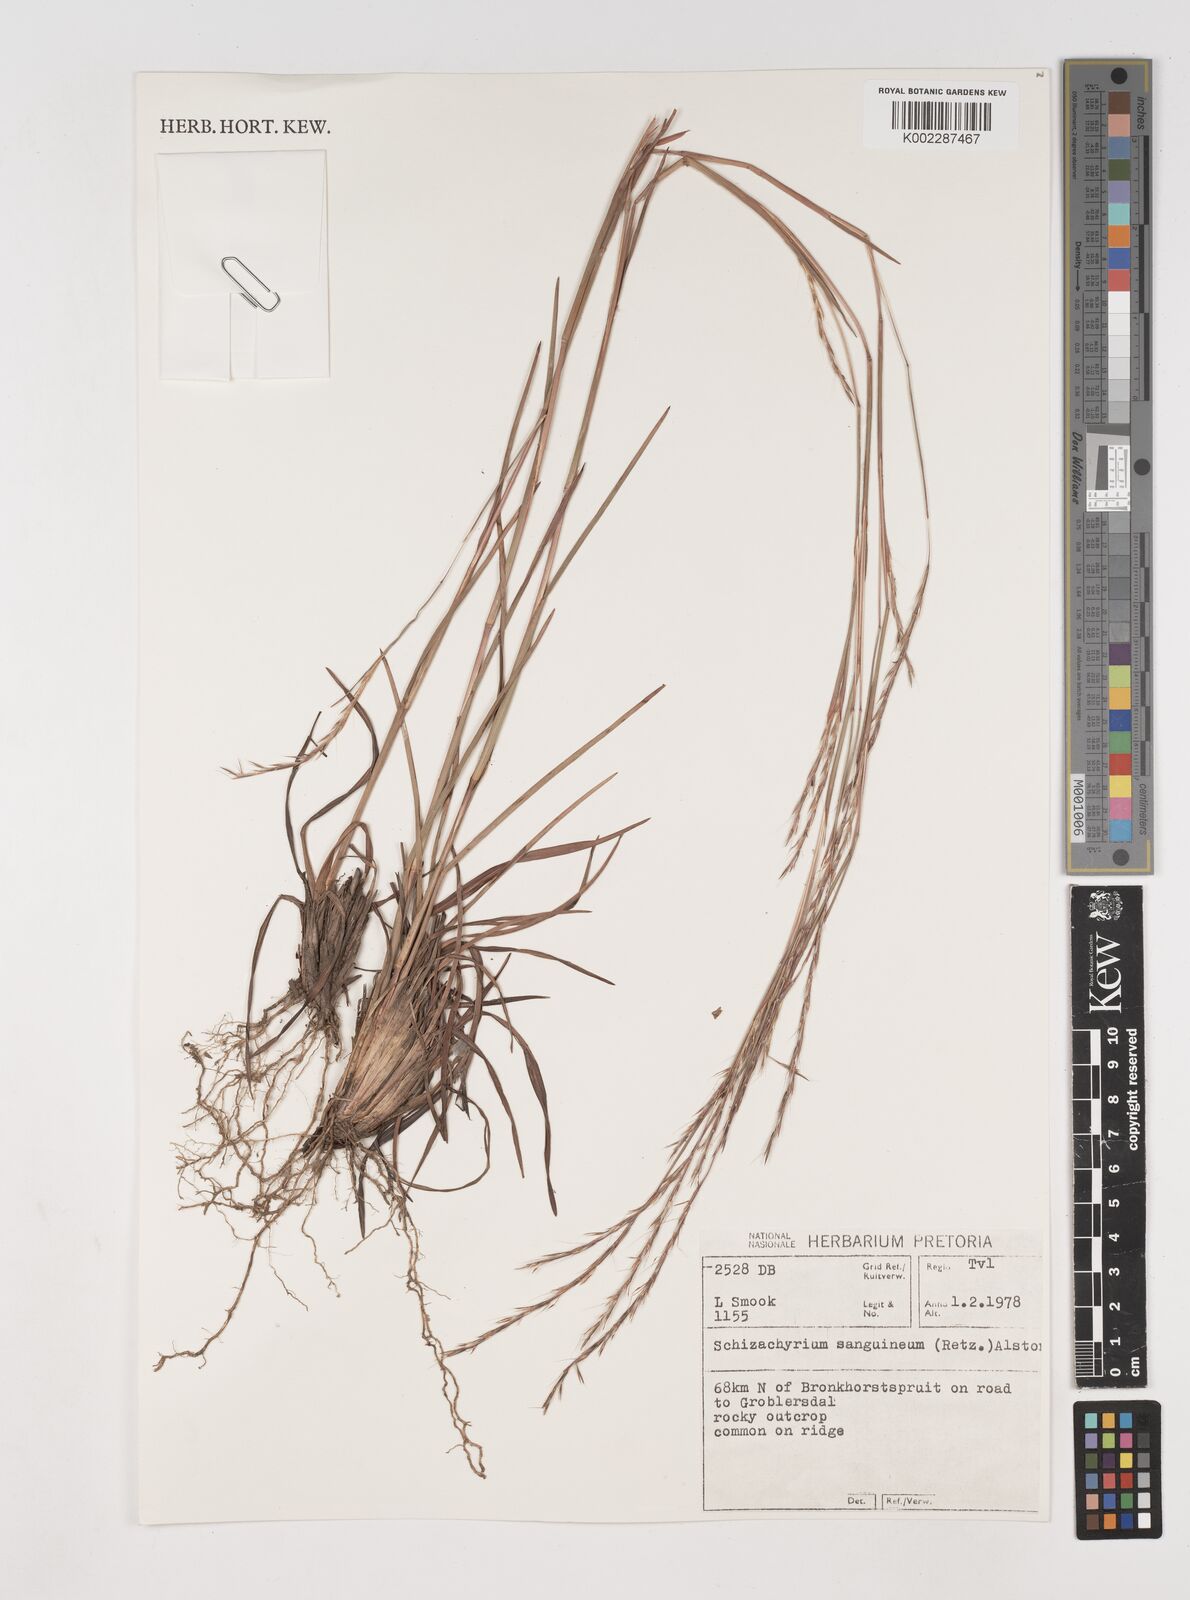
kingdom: Plantae
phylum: Tracheophyta
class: Liliopsida
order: Poales
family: Poaceae
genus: Schizachyrium
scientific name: Schizachyrium sanguineum
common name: Crimson bluestem
